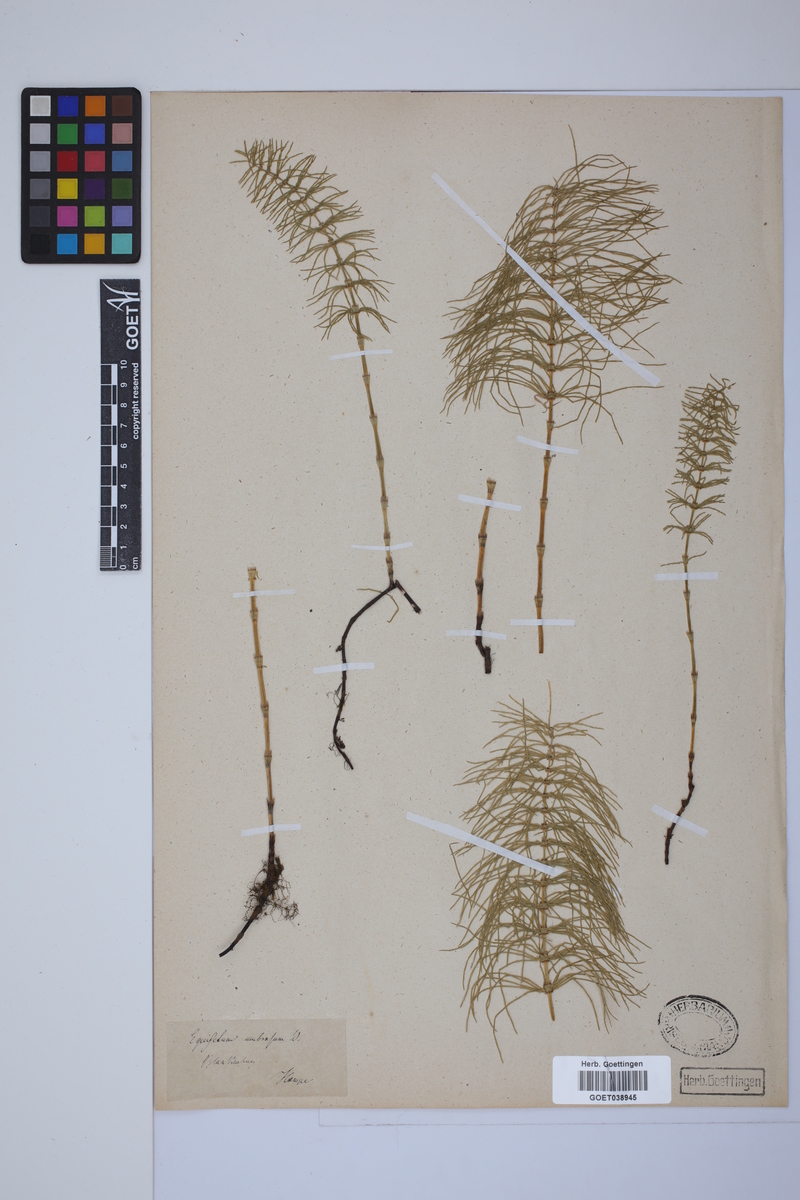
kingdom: Plantae
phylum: Tracheophyta
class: Polypodiopsida
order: Equisetales
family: Equisetaceae
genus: Equisetum
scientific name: Equisetum pratense
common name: Meadow horsetail
